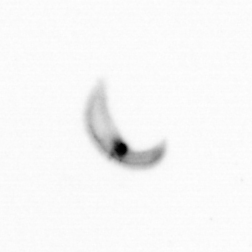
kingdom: Chromista
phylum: Ochrophyta
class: Bacillariophyceae
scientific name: Bacillariophyceae
